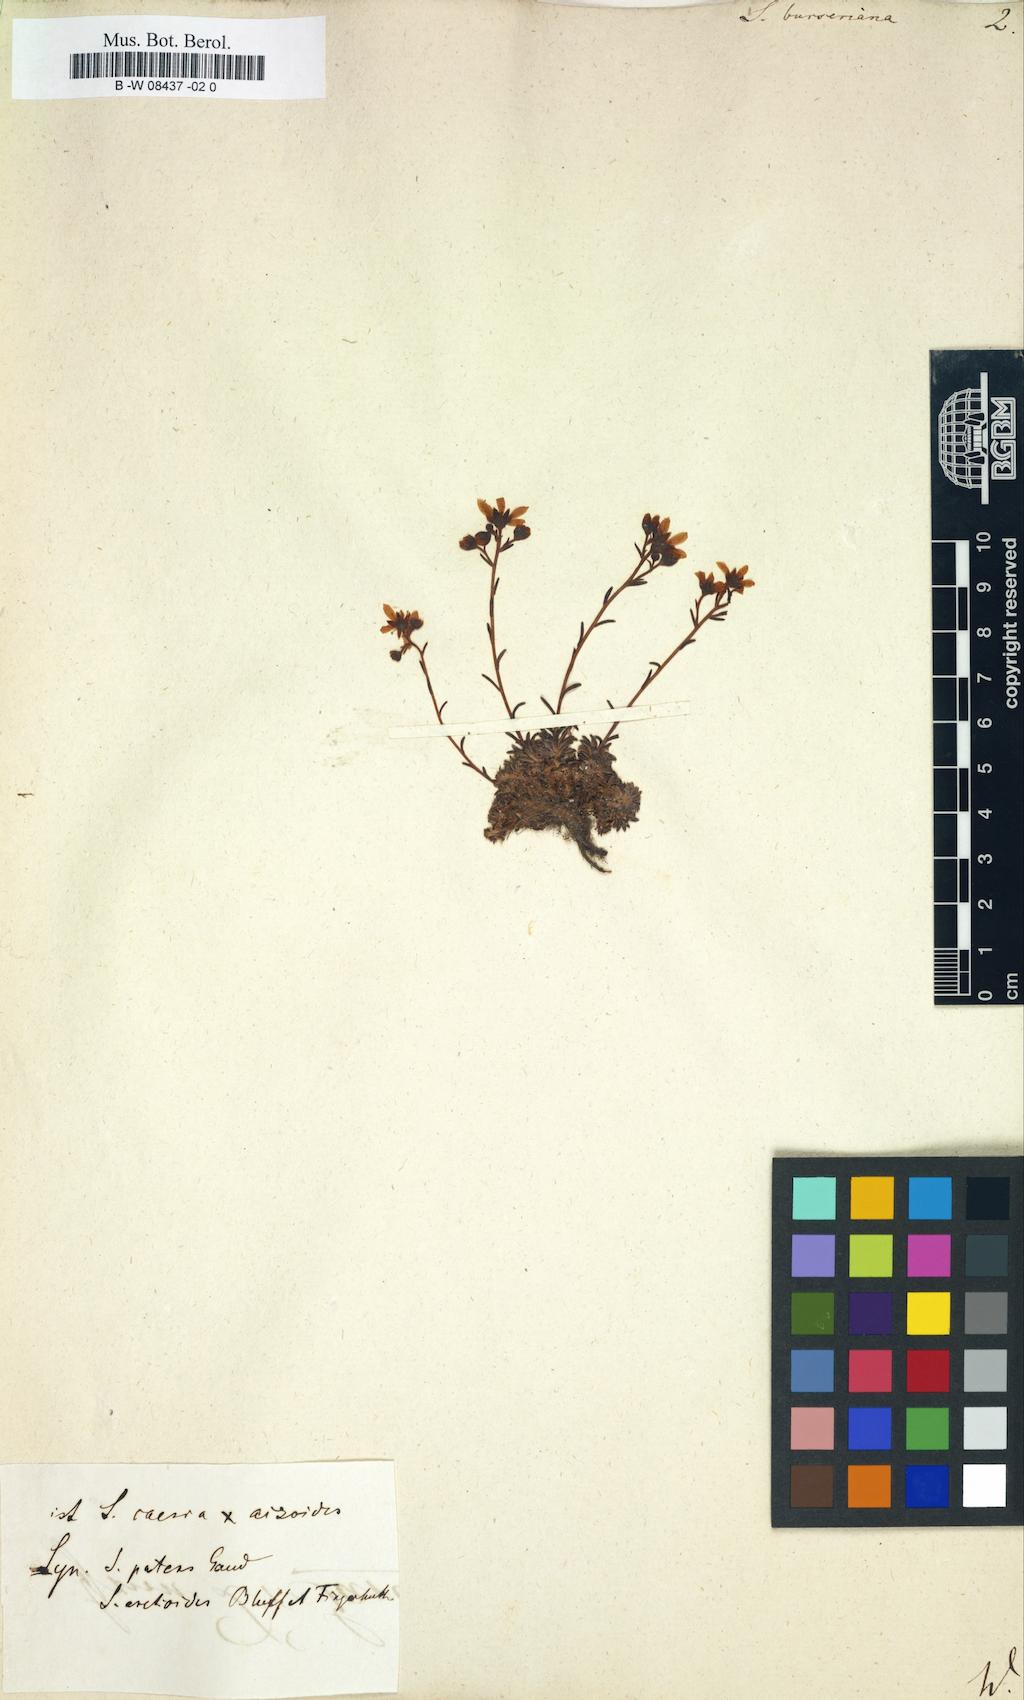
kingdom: Plantae
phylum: Tracheophyta
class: Magnoliopsida
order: Saxifragales
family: Saxifragaceae
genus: Saxifraga
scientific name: Saxifraga burseriana
